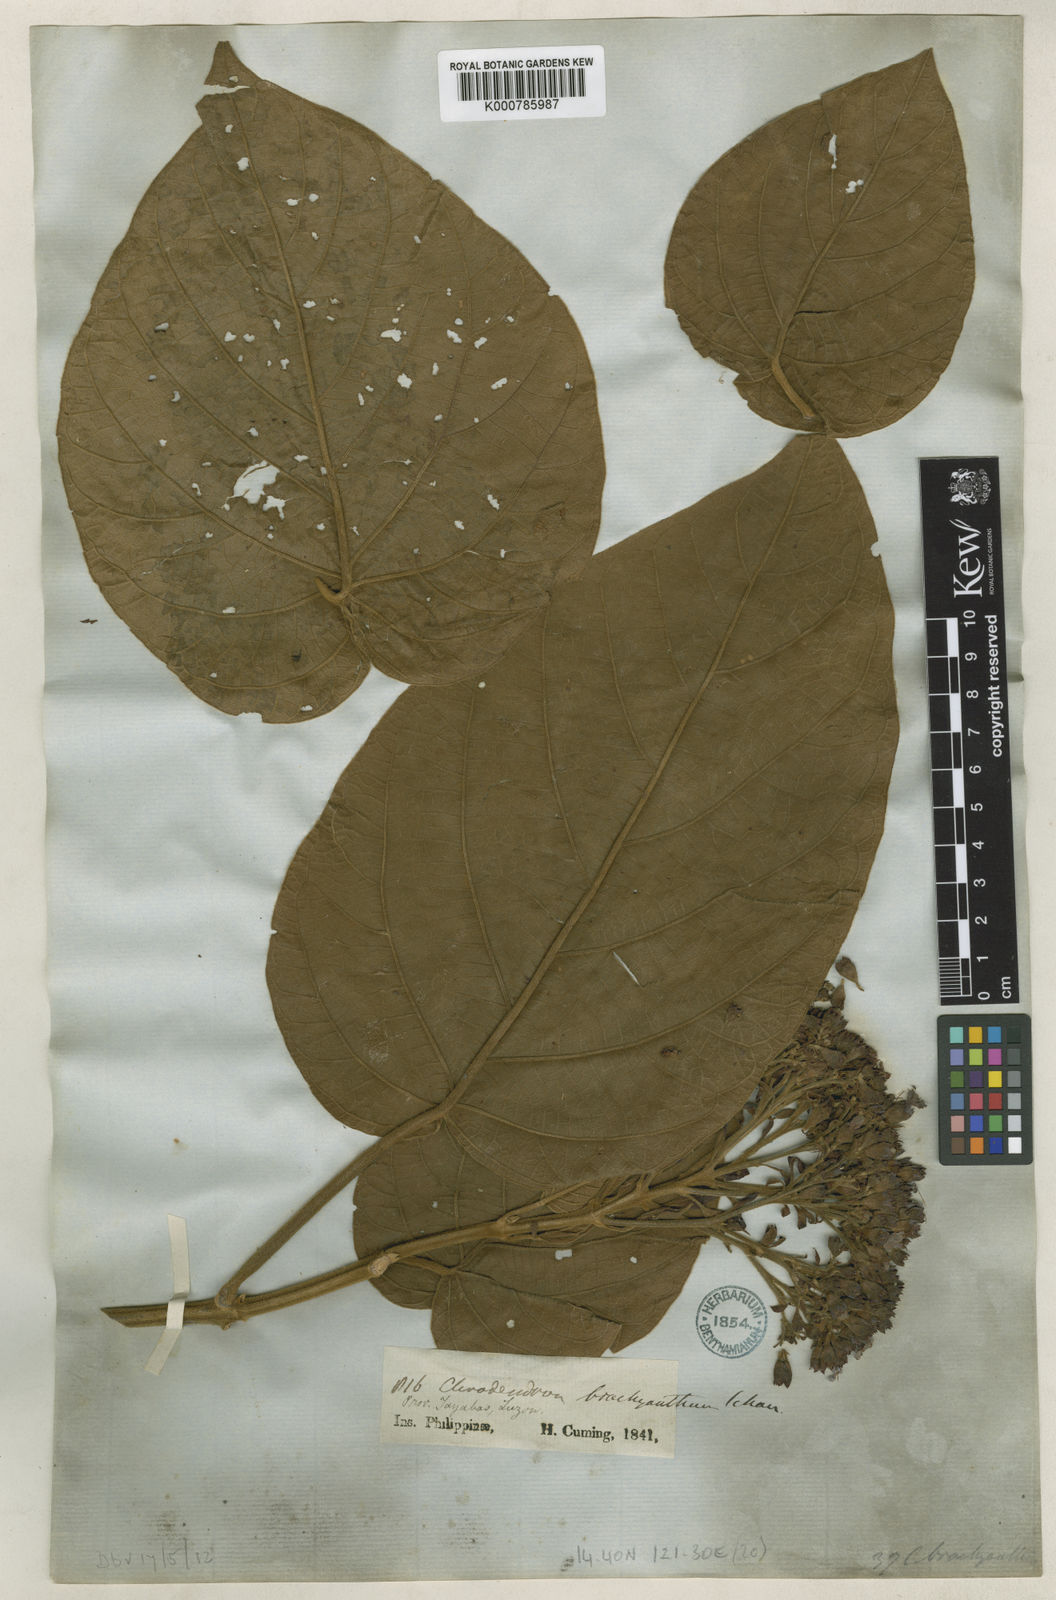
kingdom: Plantae
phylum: Tracheophyta
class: Magnoliopsida
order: Lamiales
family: Lamiaceae
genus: Clerodendrum
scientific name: Clerodendrum brachyanthum
